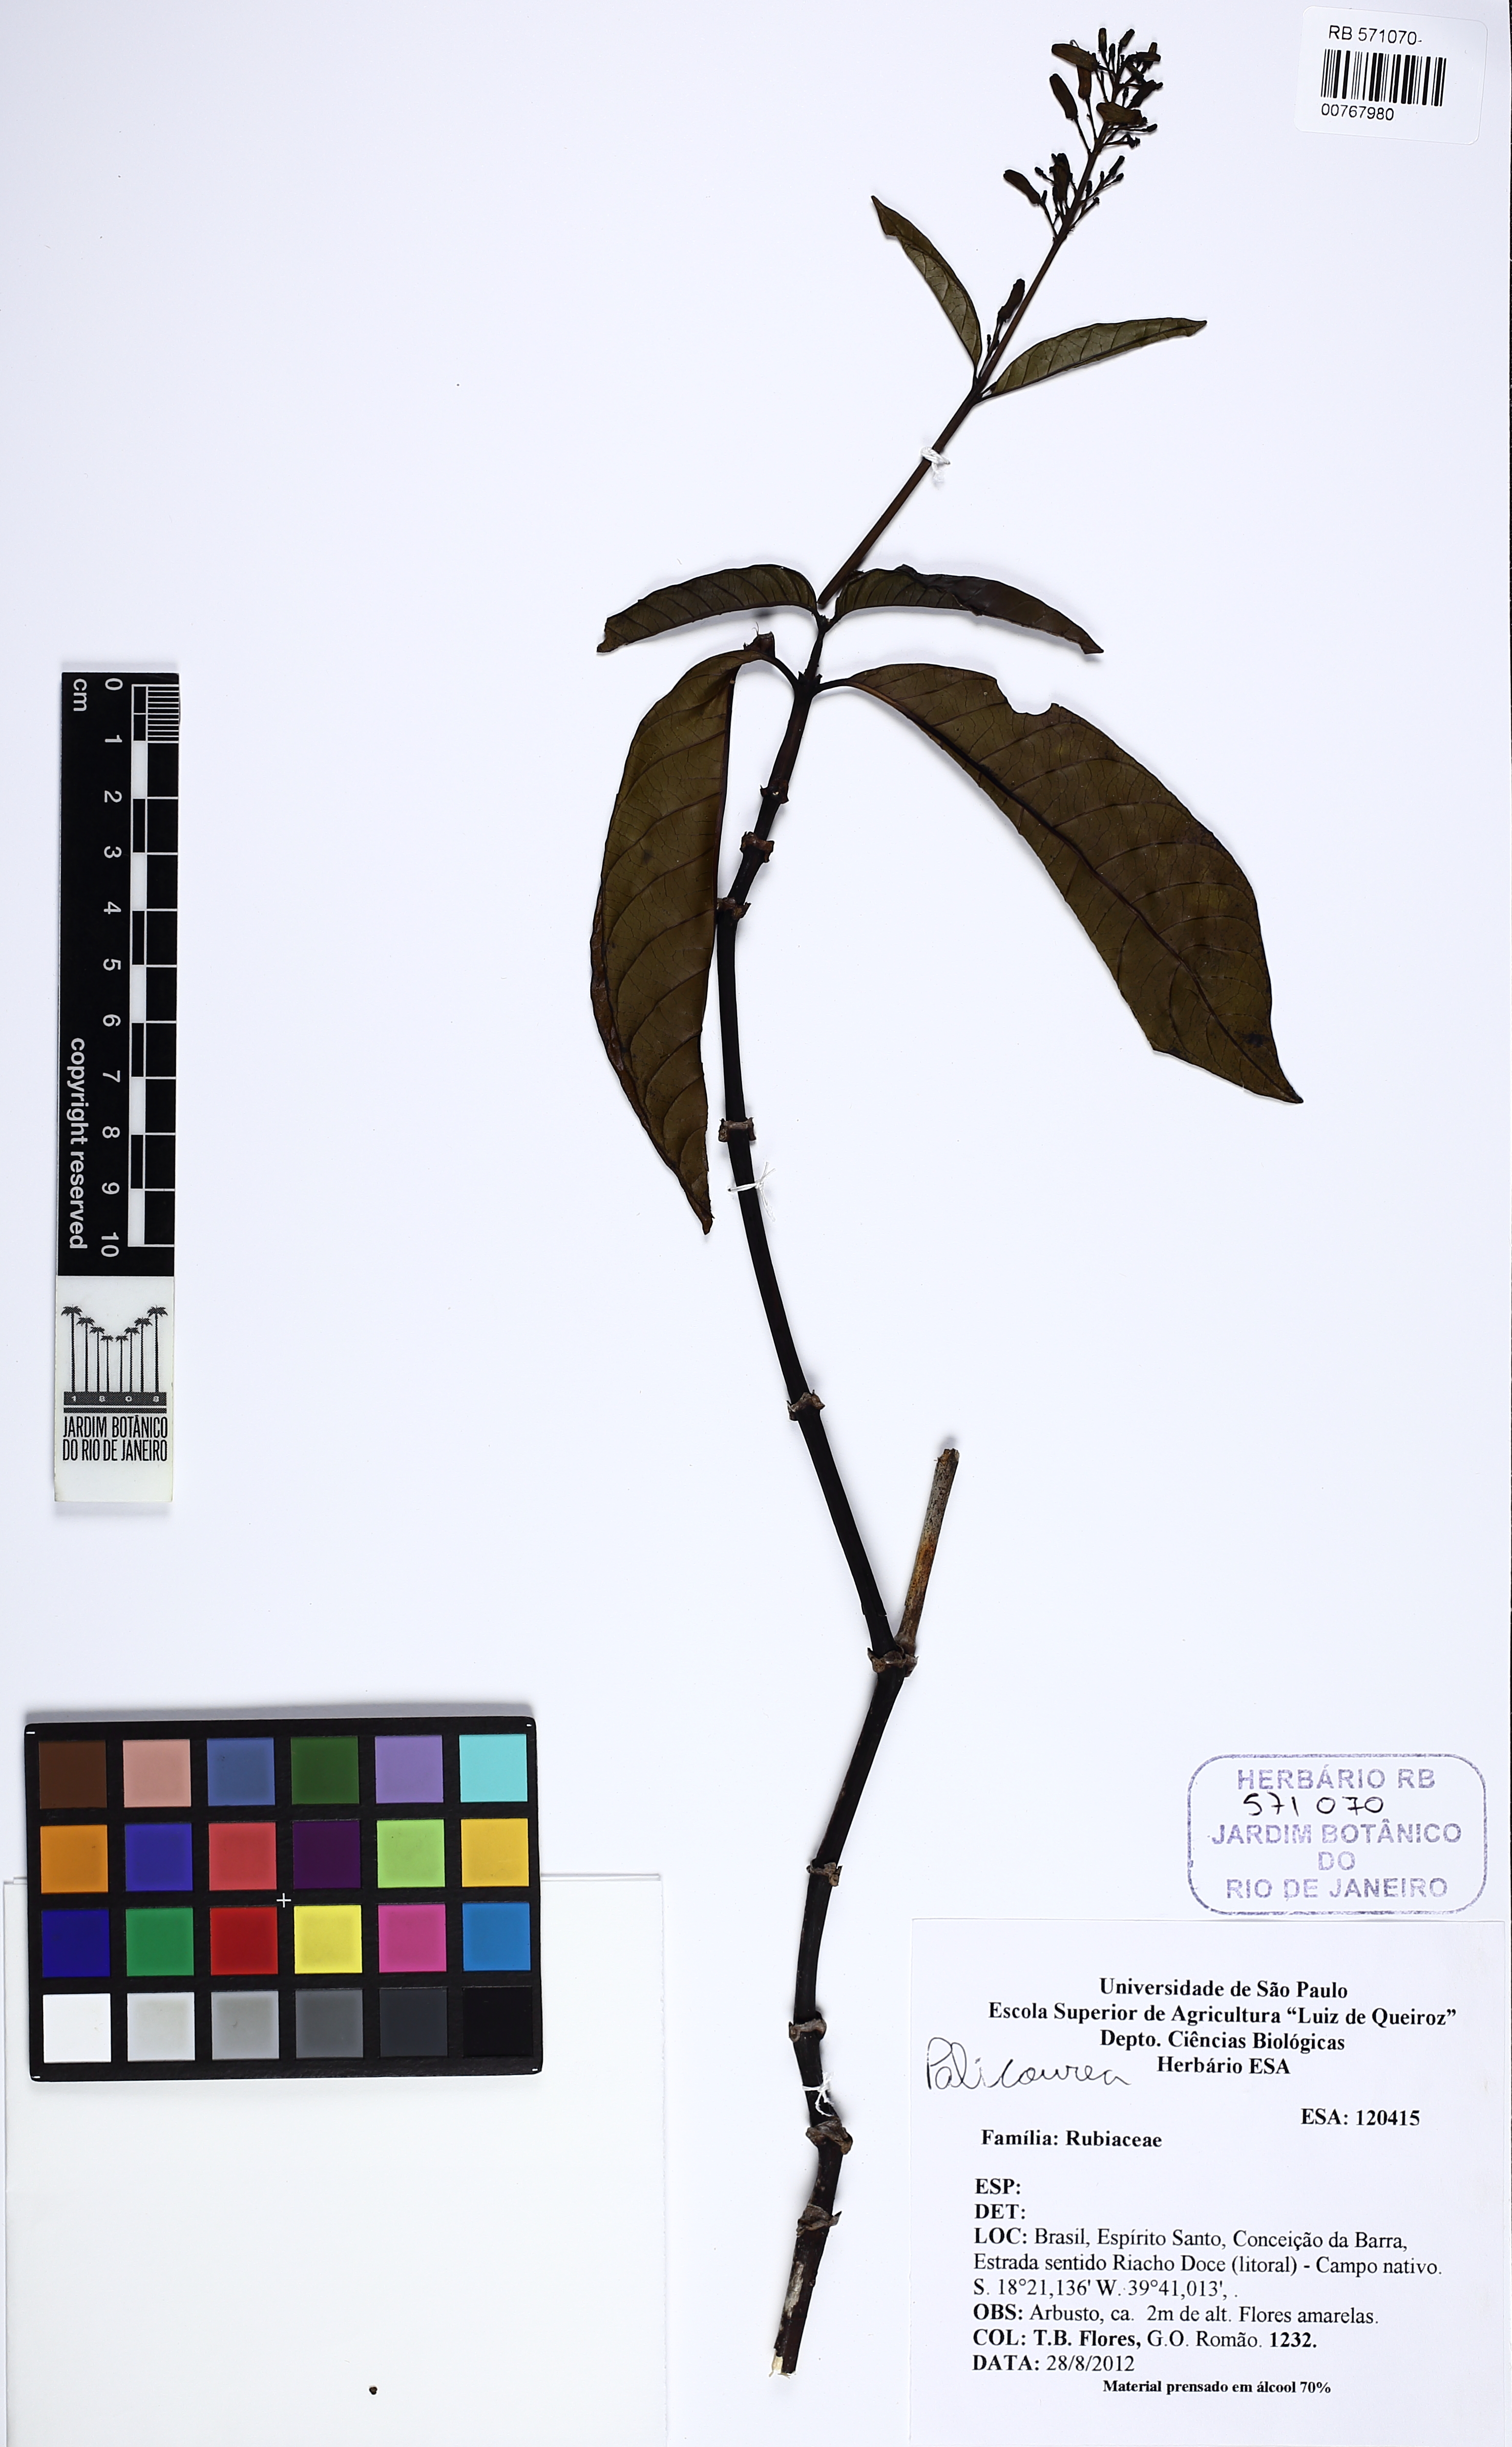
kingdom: Plantae
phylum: Tracheophyta
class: Magnoliopsida
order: Gentianales
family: Rubiaceae
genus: Palicourea
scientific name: Palicourea blanchetiana
